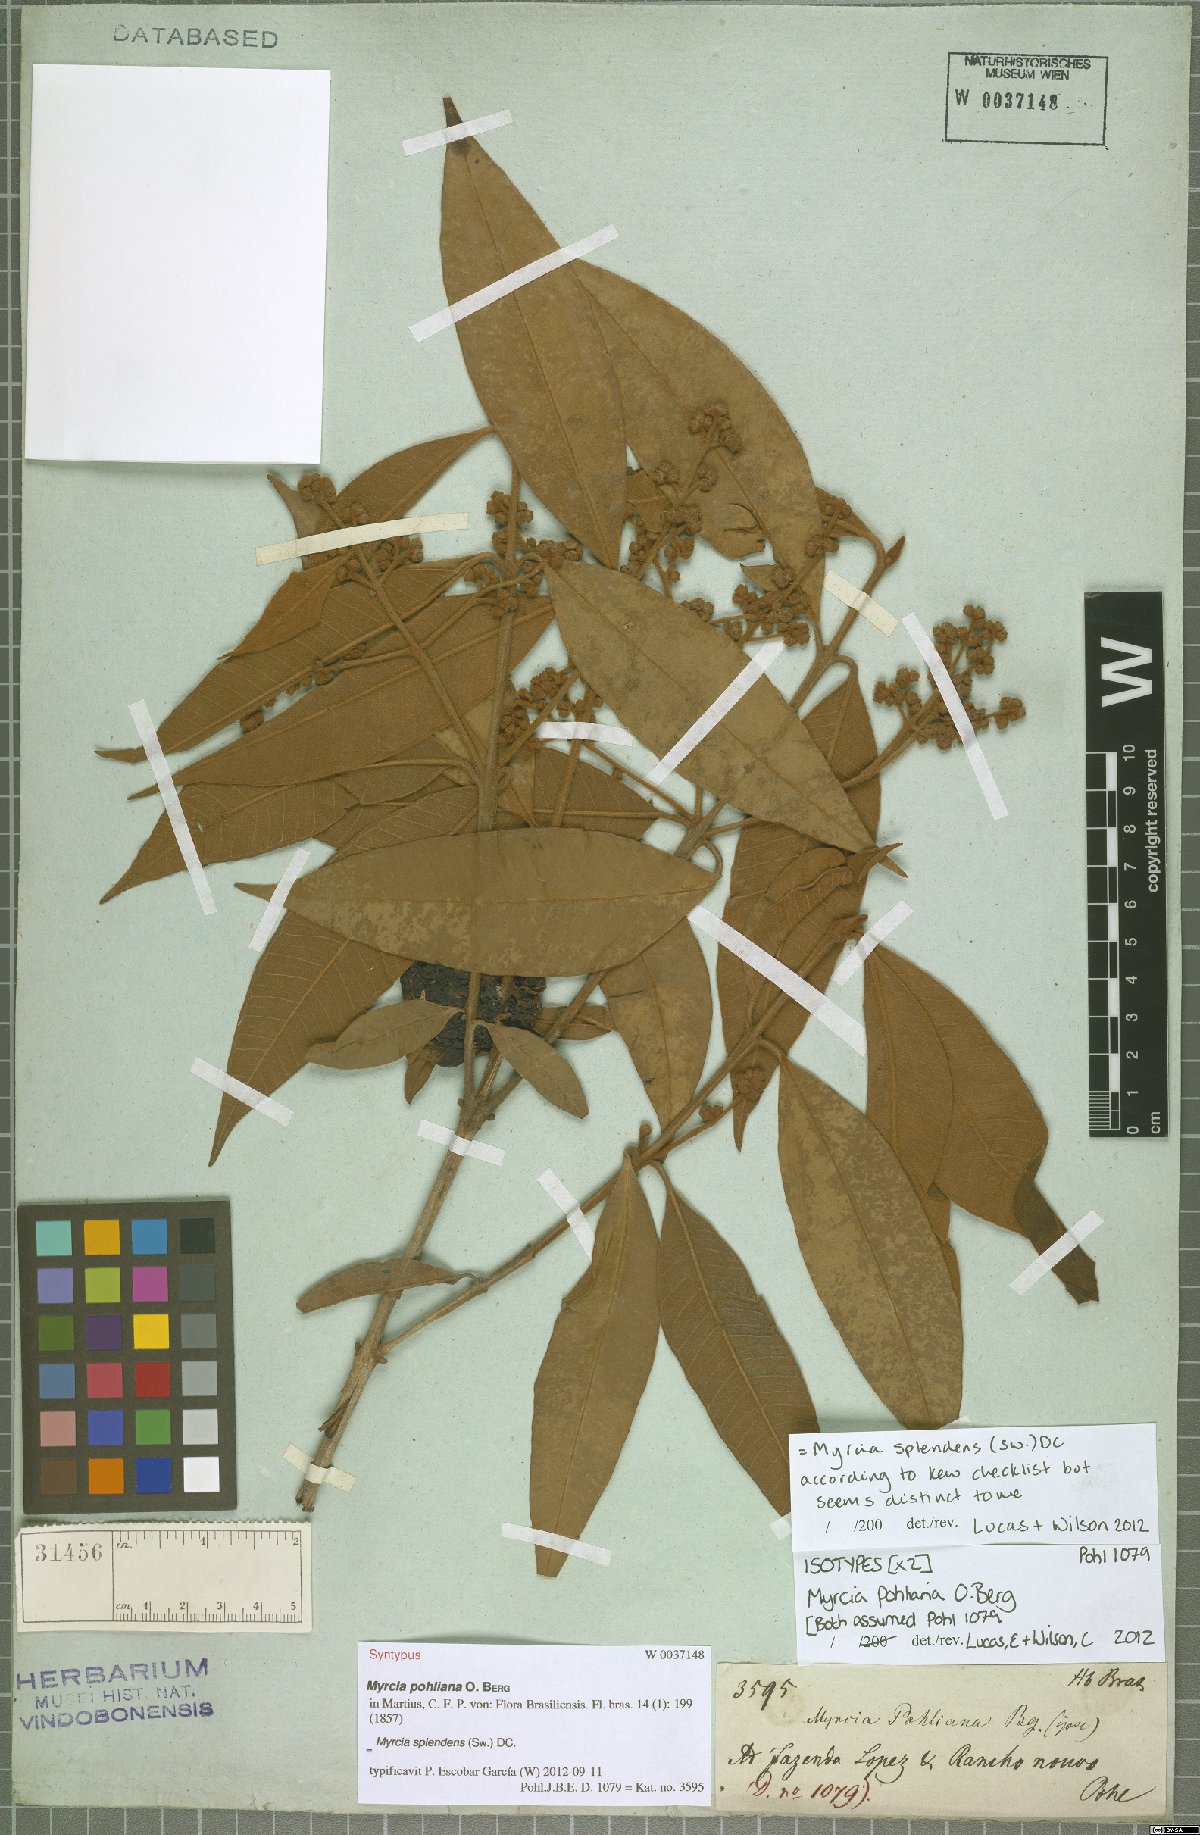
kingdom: Plantae
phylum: Tracheophyta
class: Magnoliopsida
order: Myrtales
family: Myrtaceae
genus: Myrcia
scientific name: Myrcia splendens
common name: Surinam cherry
